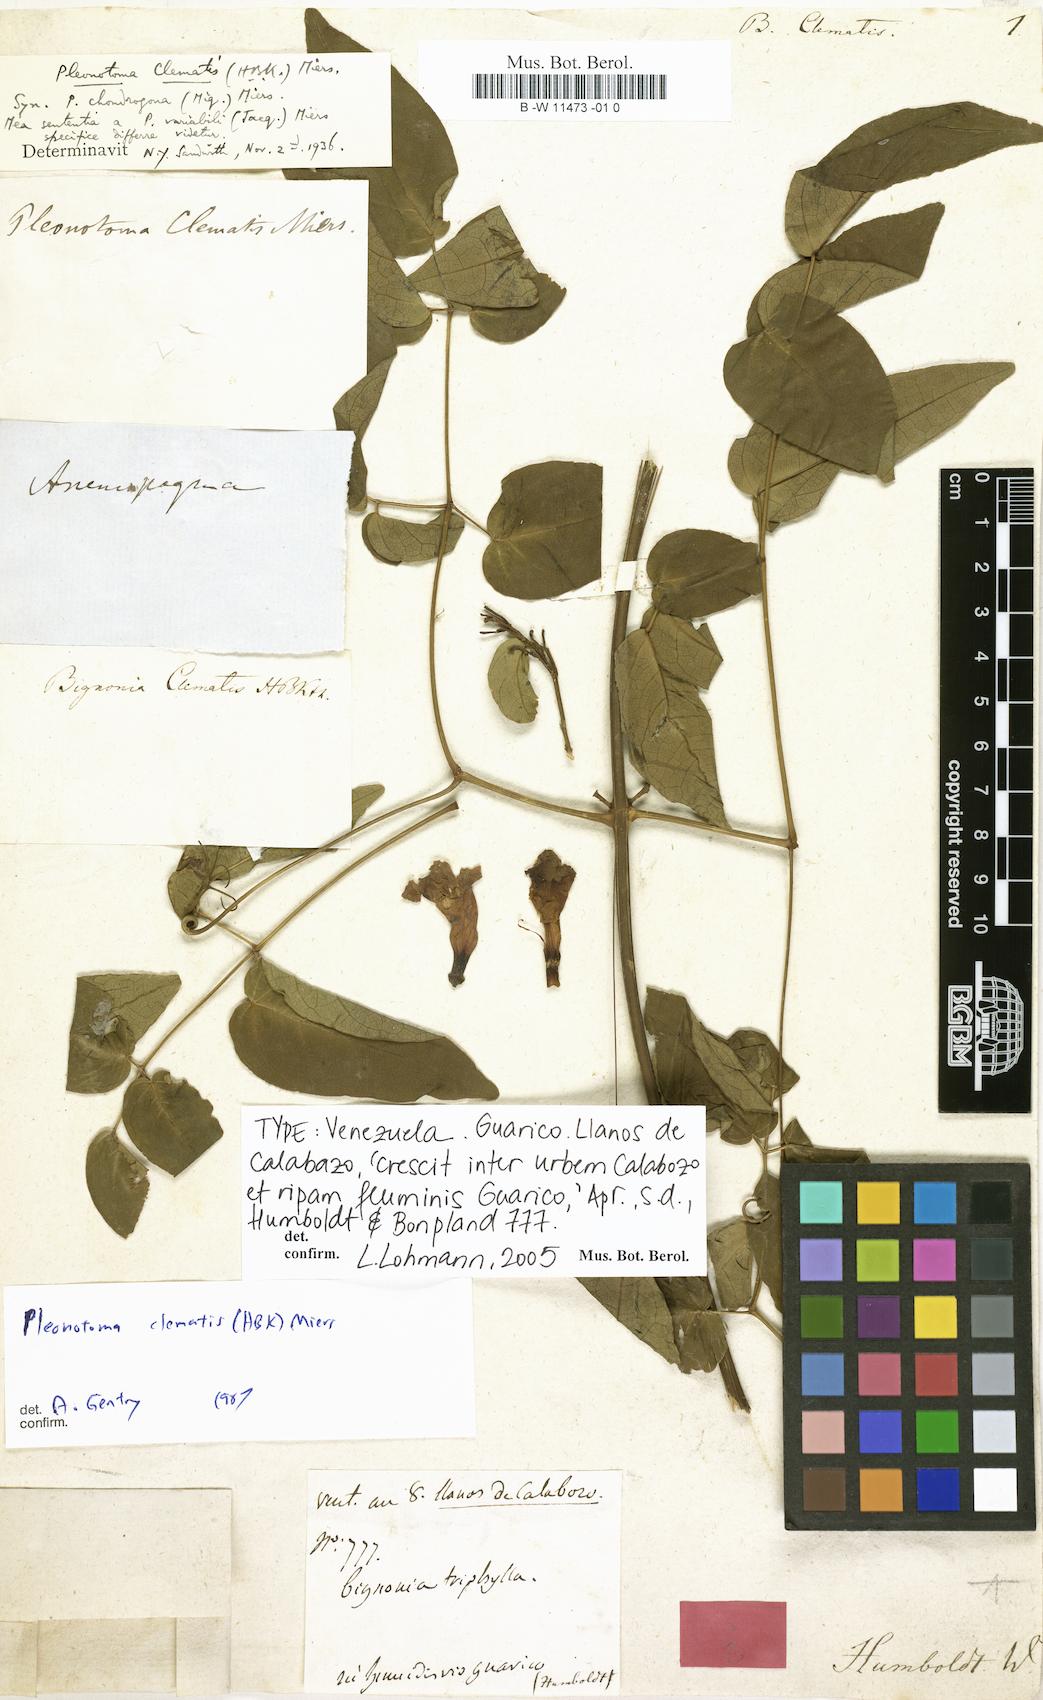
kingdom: Plantae
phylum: Tracheophyta
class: Magnoliopsida
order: Lamiales
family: Bignoniaceae
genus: Pleonotoma
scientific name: Pleonotoma clematis
